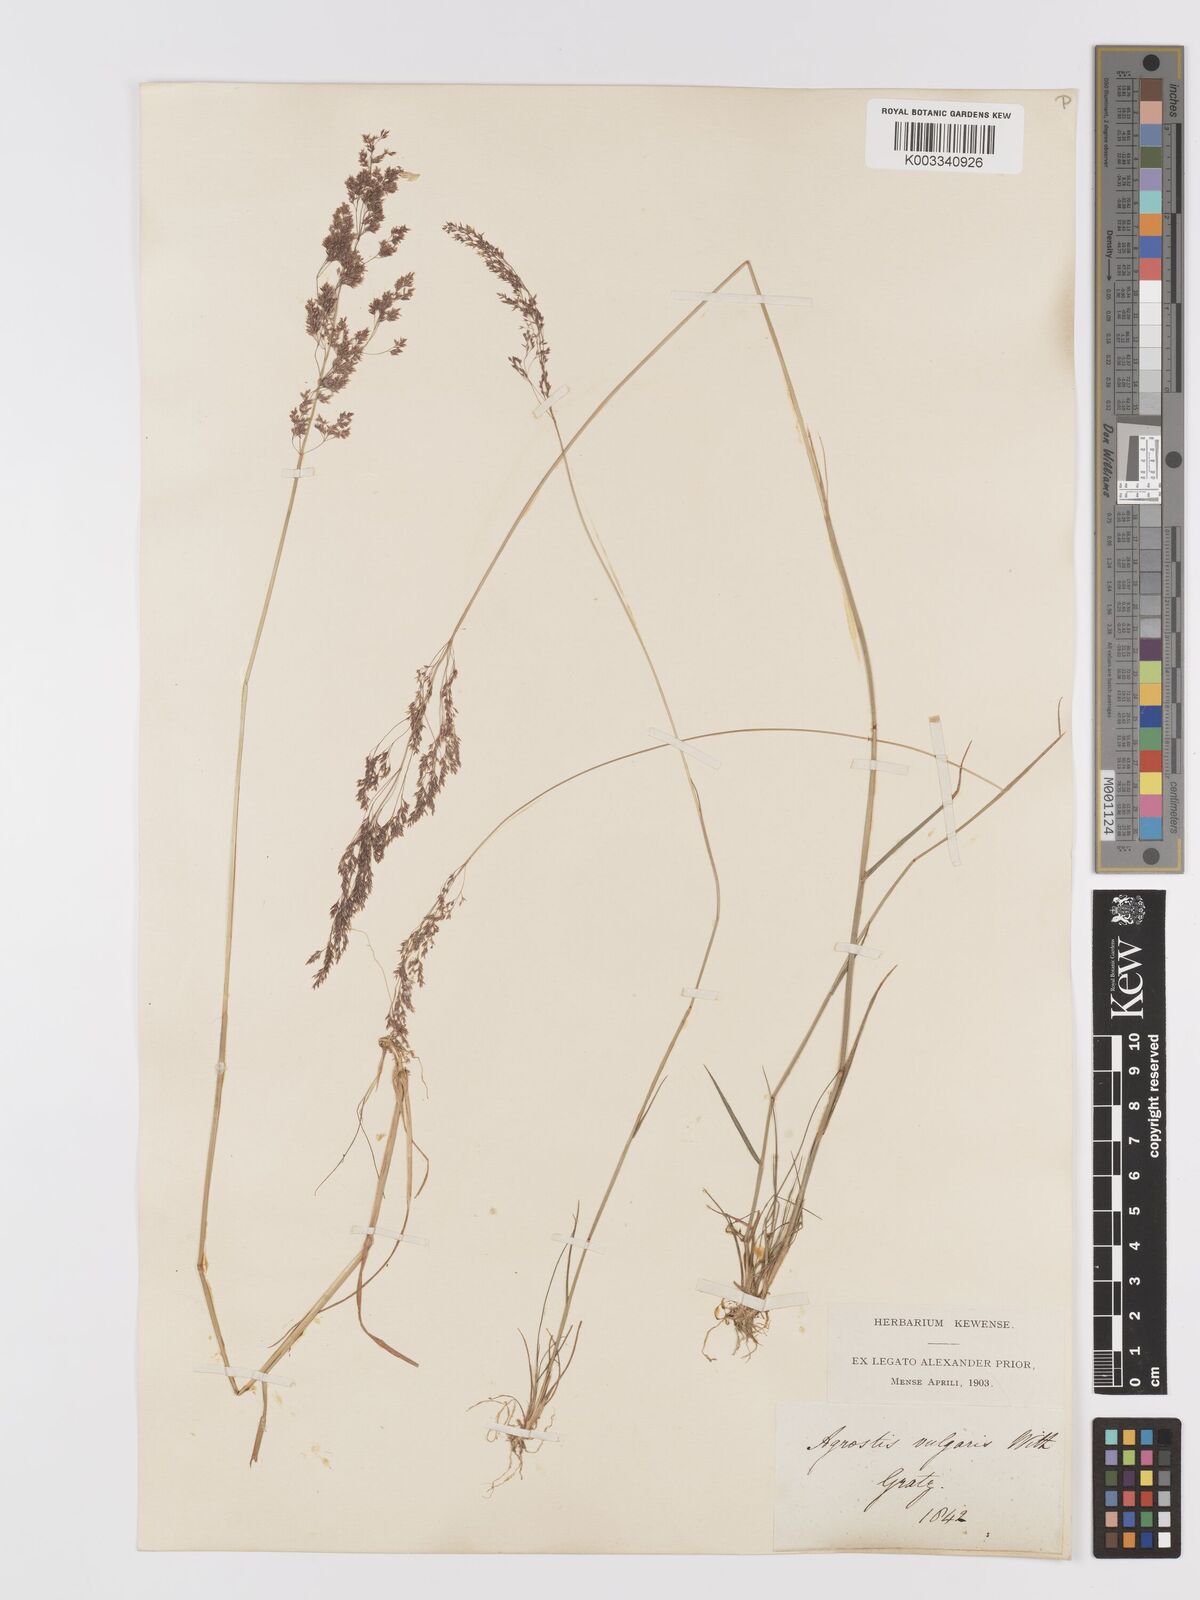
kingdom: Plantae
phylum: Tracheophyta
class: Liliopsida
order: Poales
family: Poaceae
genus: Agrostis
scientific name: Agrostis capillaris
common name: Colonial bentgrass
